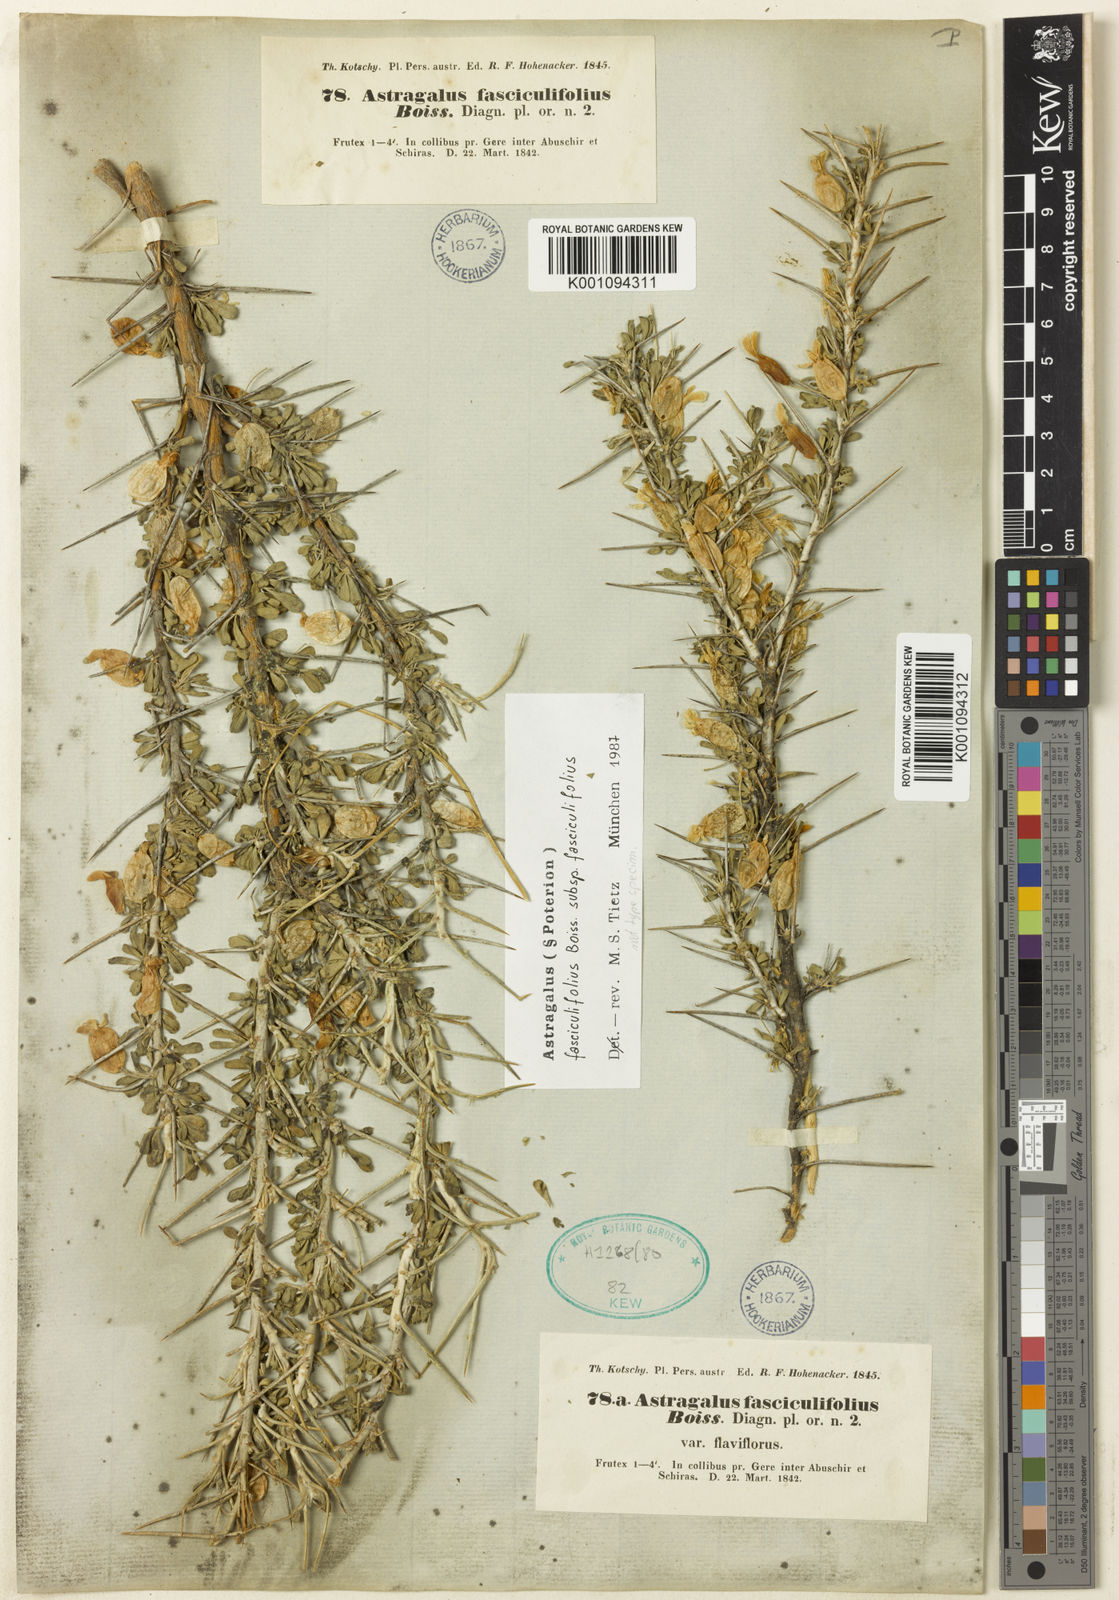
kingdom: Plantae
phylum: Tracheophyta
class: Magnoliopsida
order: Fabales
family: Fabaceae
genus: Astragalus
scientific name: Astragalus
